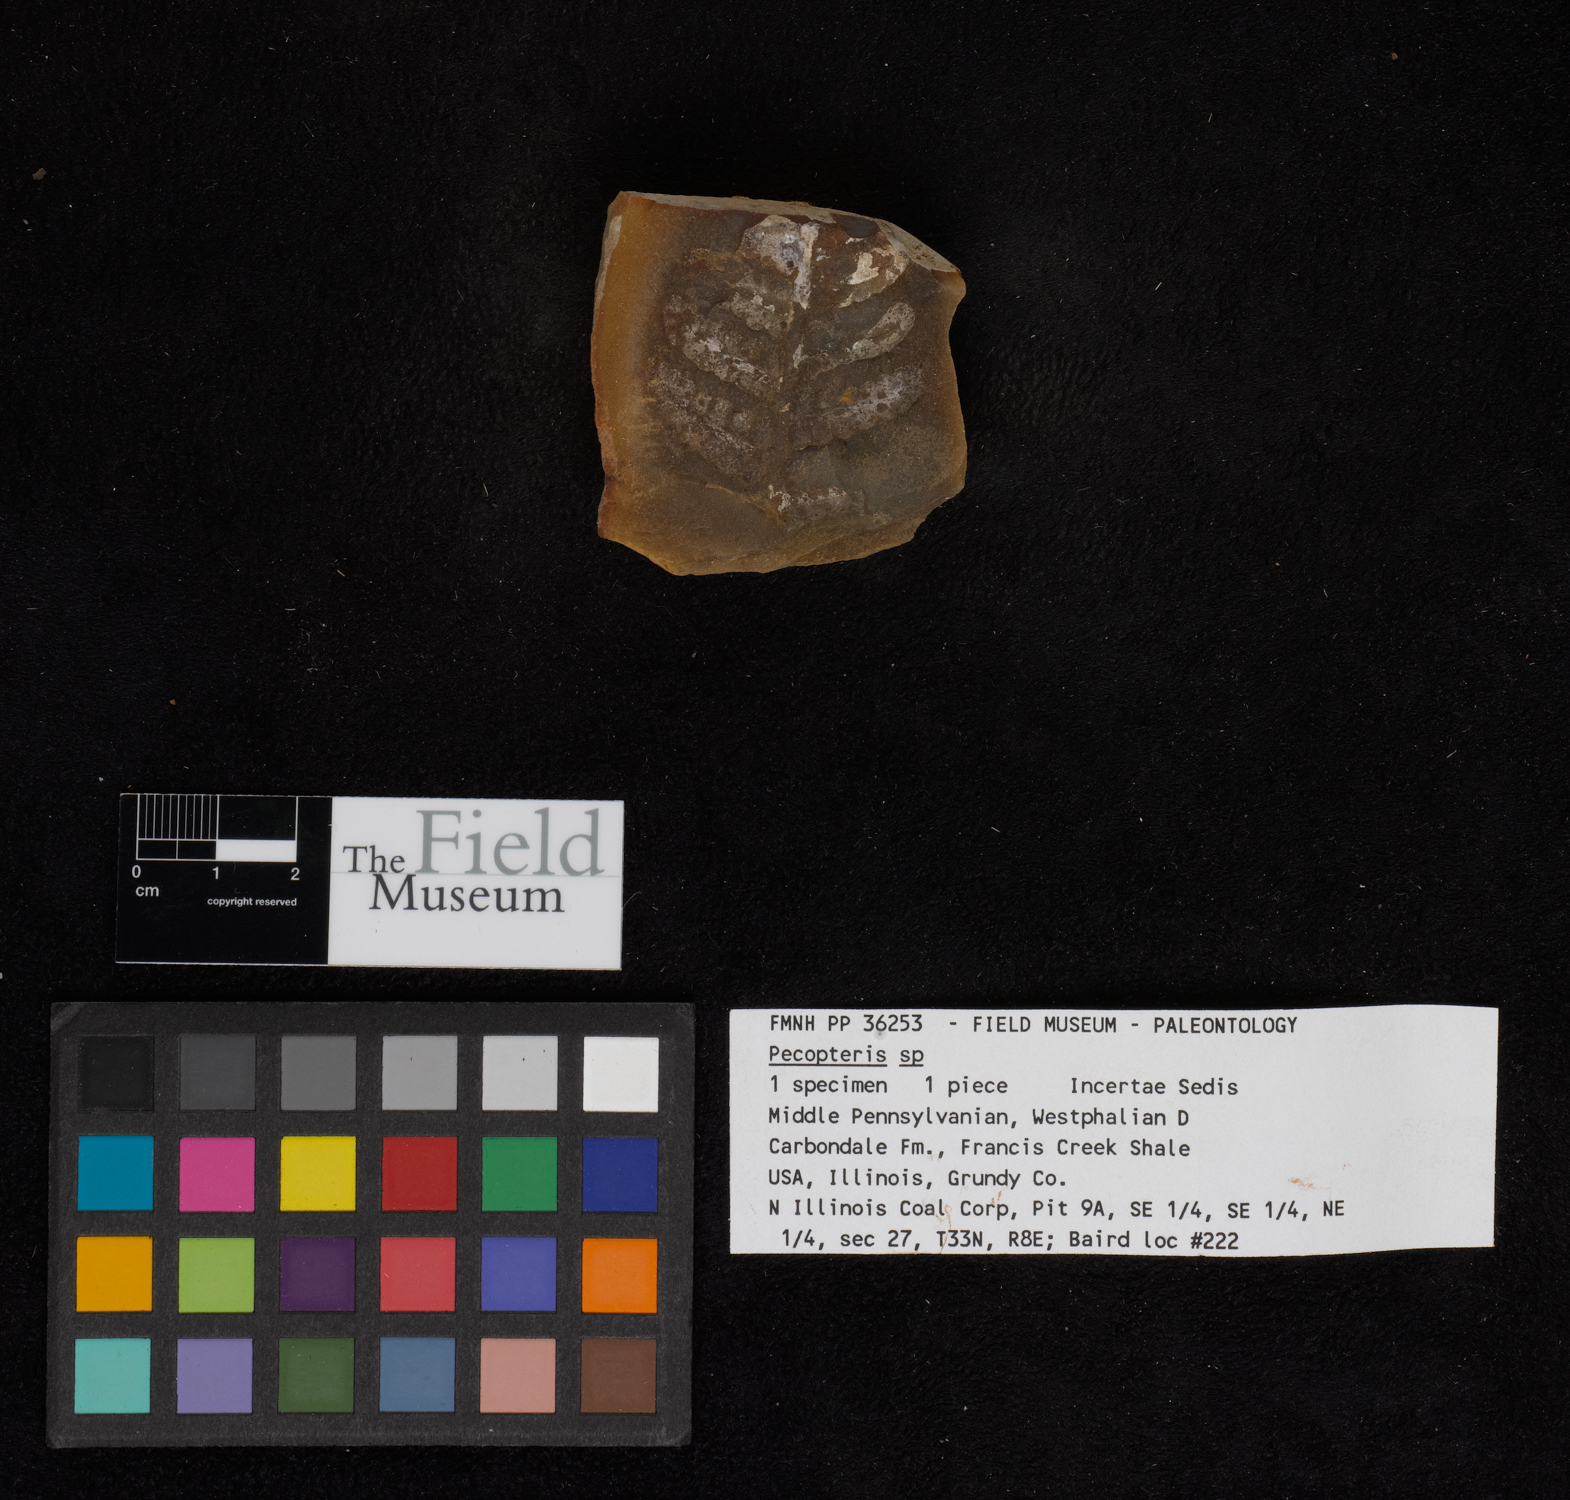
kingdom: Plantae
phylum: Tracheophyta
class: Polypodiopsida
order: Marattiales
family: Asterothecaceae
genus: Pecopteris
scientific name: Pecopteris
